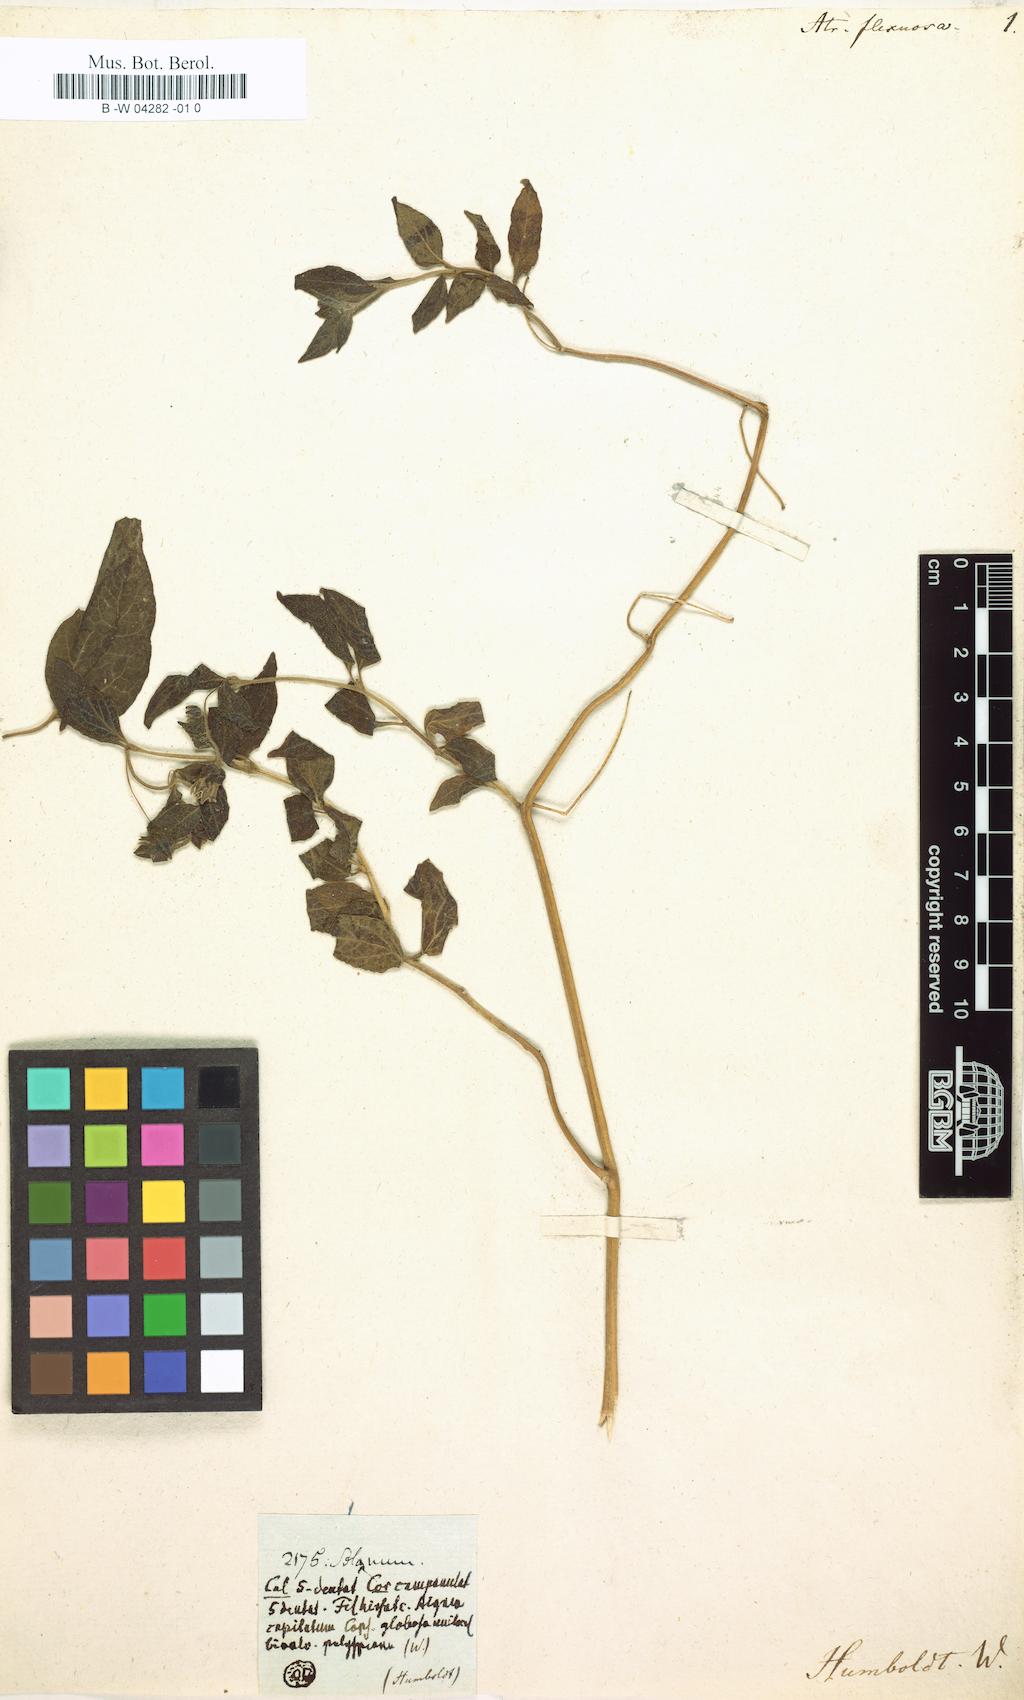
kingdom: Plantae
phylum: Tracheophyta
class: Magnoliopsida
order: Solanales
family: Solanaceae
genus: Jaltomata
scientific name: Jaltomata viridiflora
